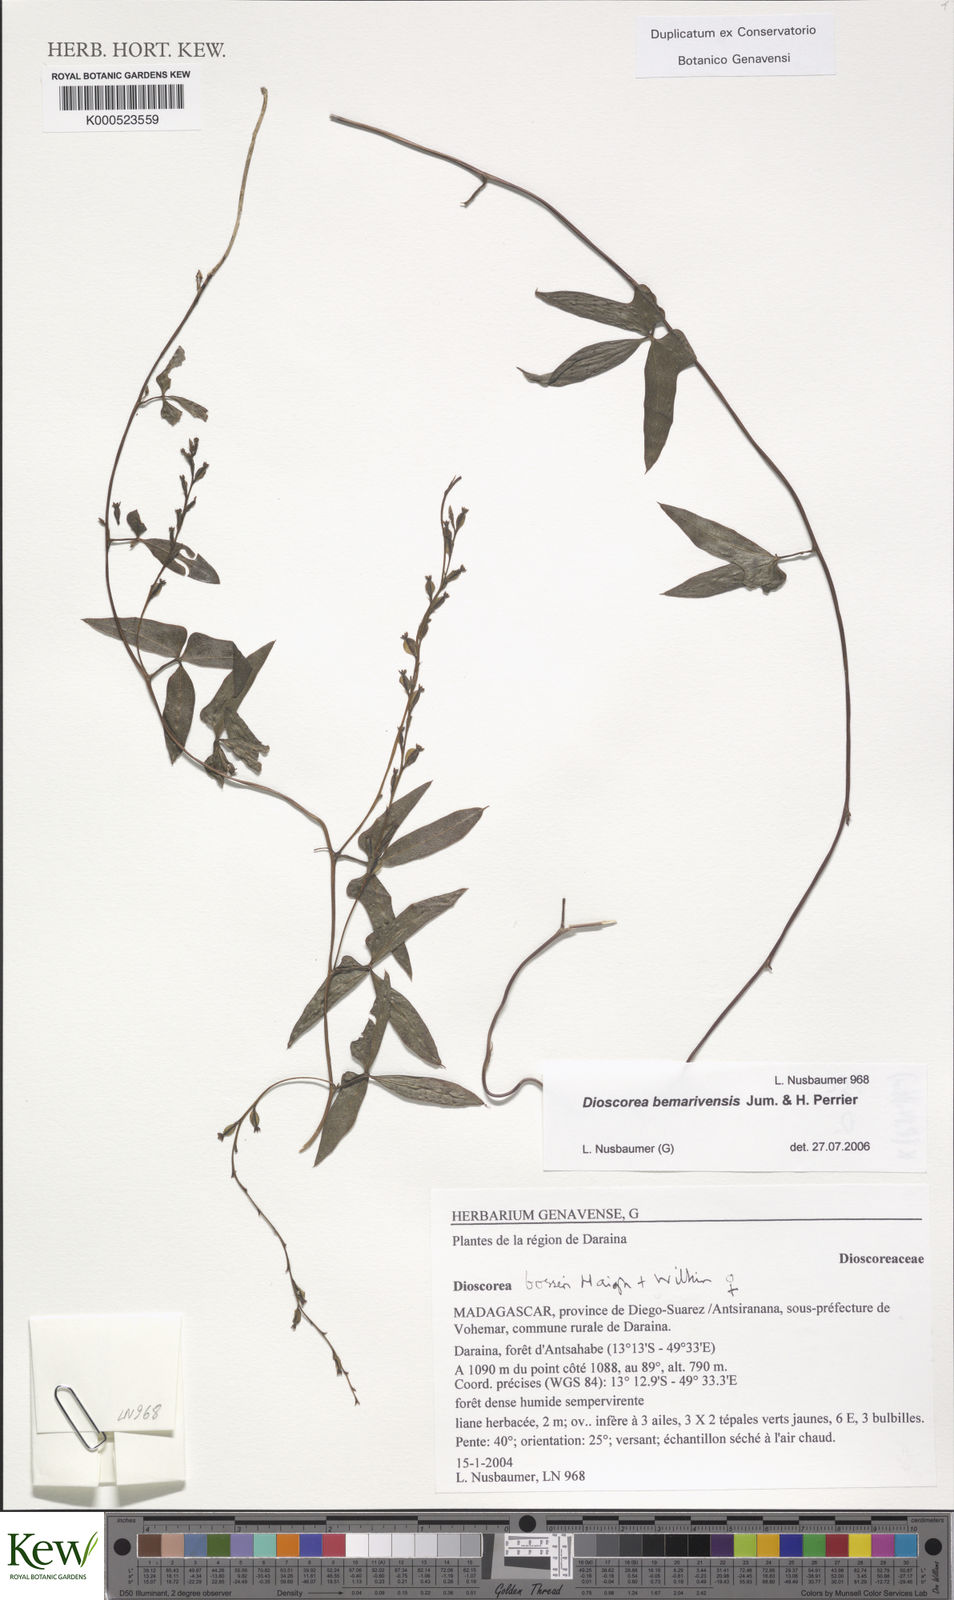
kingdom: Plantae
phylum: Tracheophyta
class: Liliopsida
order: Dioscoreales
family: Dioscoreaceae
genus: Dioscorea
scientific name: Dioscorea bosseri
